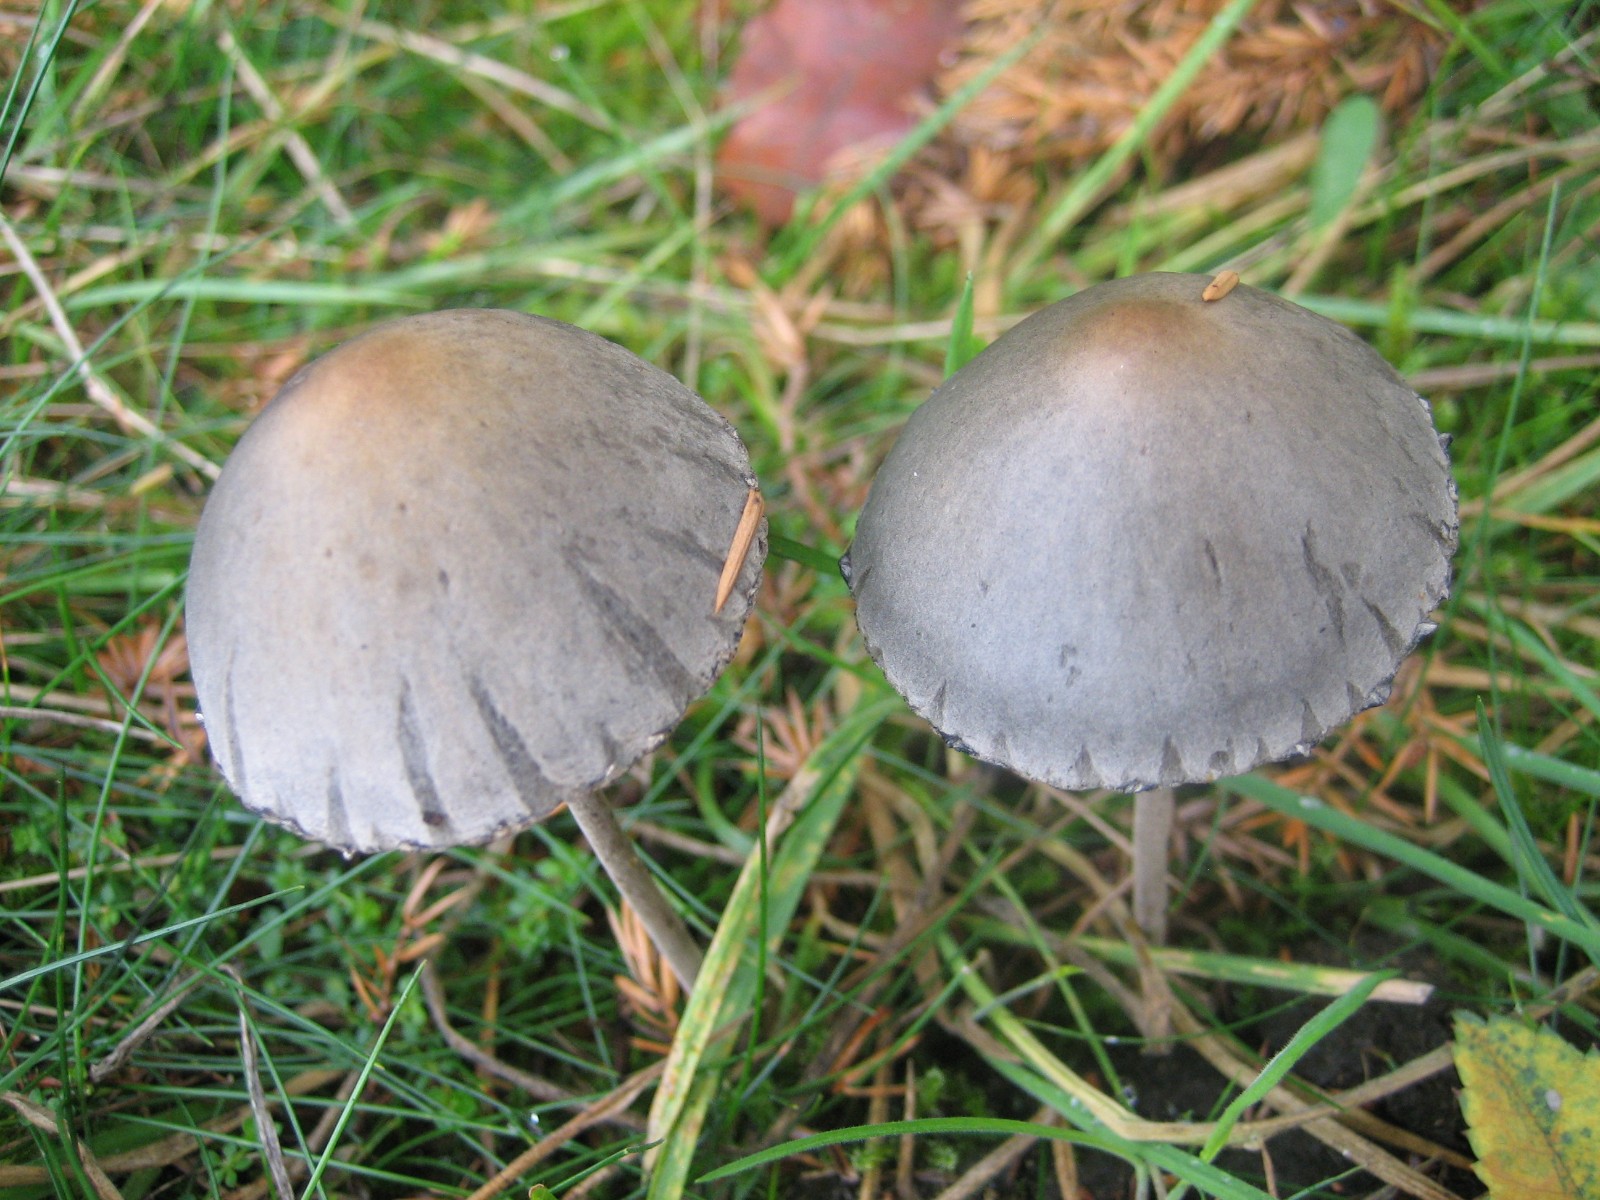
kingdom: Fungi
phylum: Basidiomycota
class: Agaricomycetes
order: Agaricales
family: Bolbitiaceae
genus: Panaeolus
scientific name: Panaeolus papilionaceus
